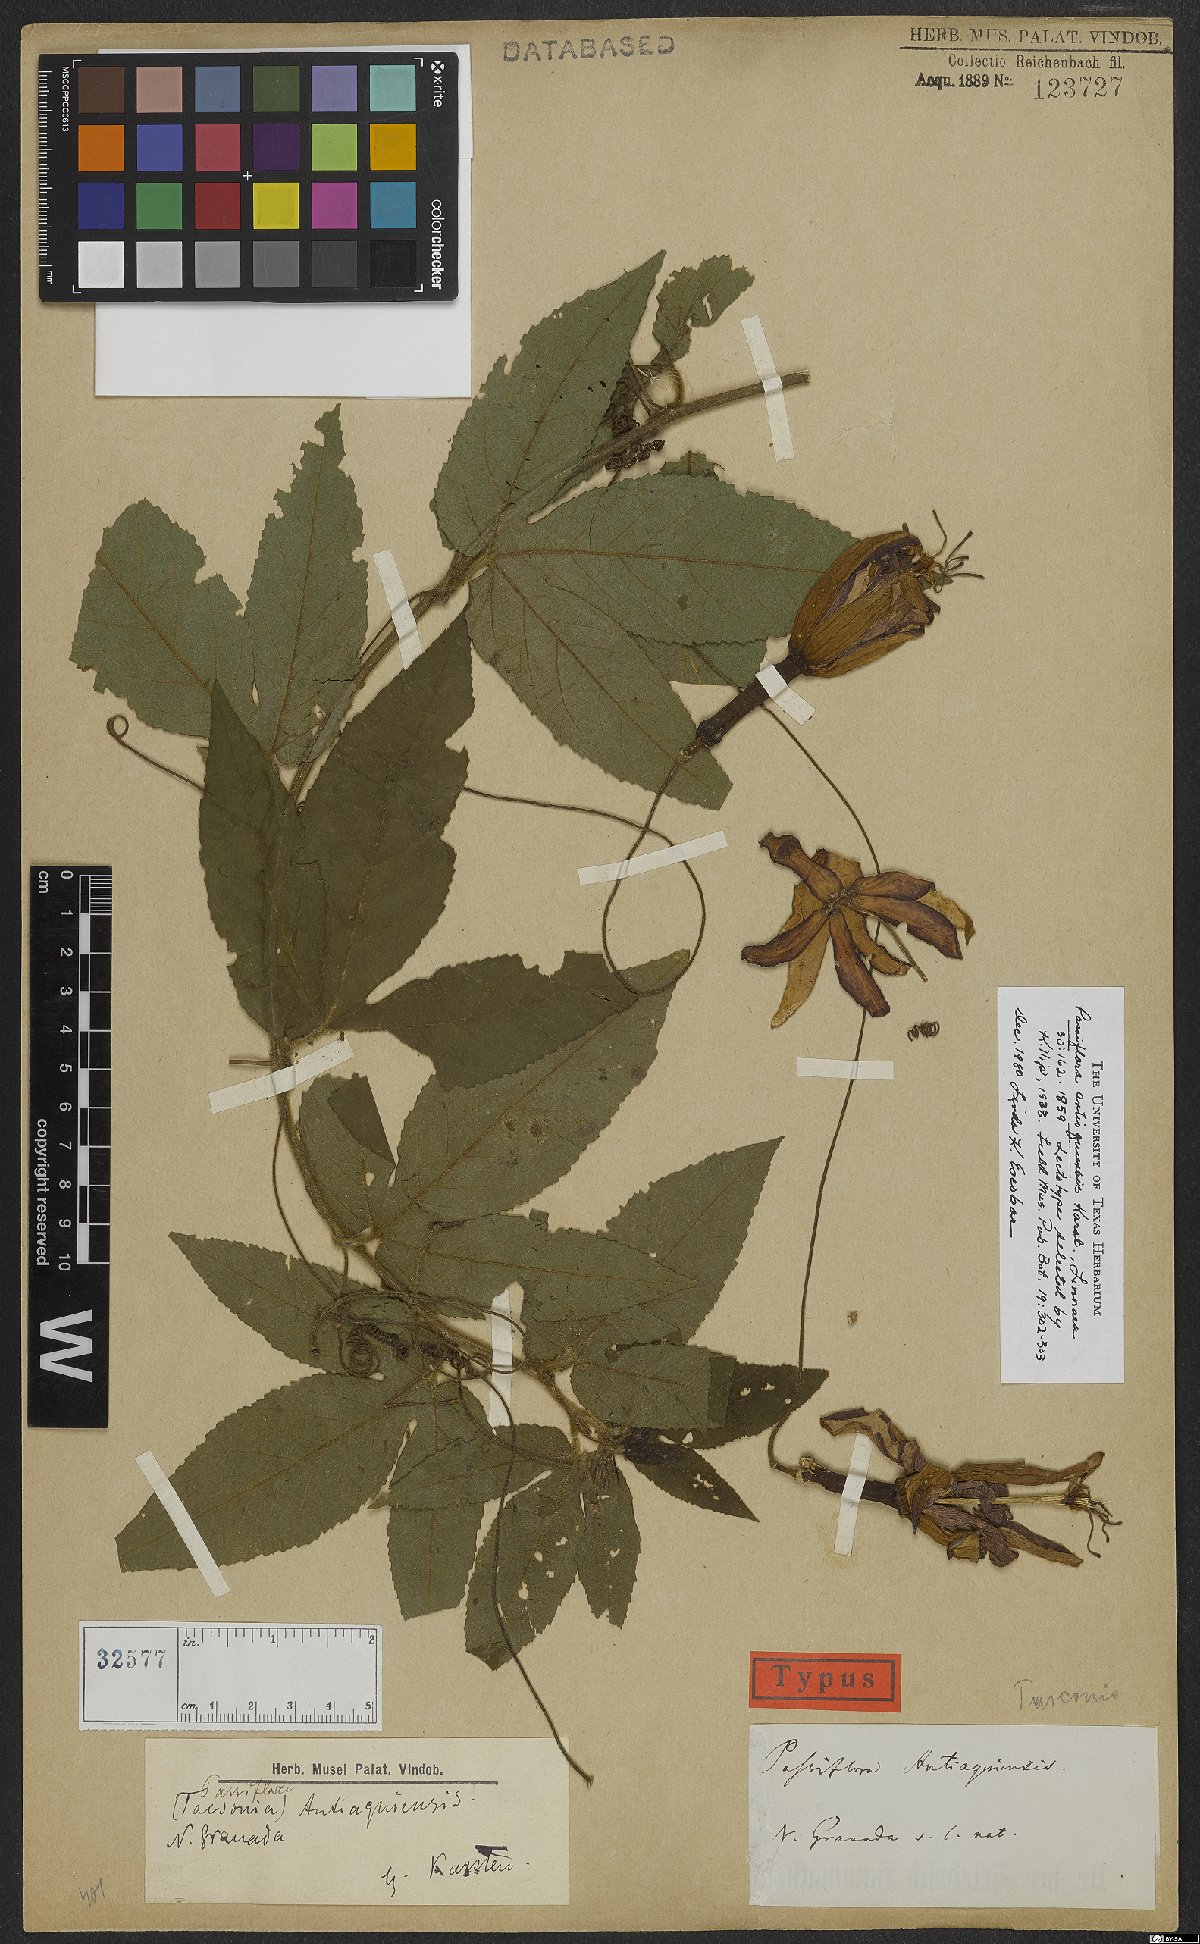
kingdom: Plantae
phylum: Tracheophyta
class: Magnoliopsida
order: Malpighiales
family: Passifloraceae
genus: Passiflora
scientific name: Passiflora antioquiensis
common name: Banana passionfruit
